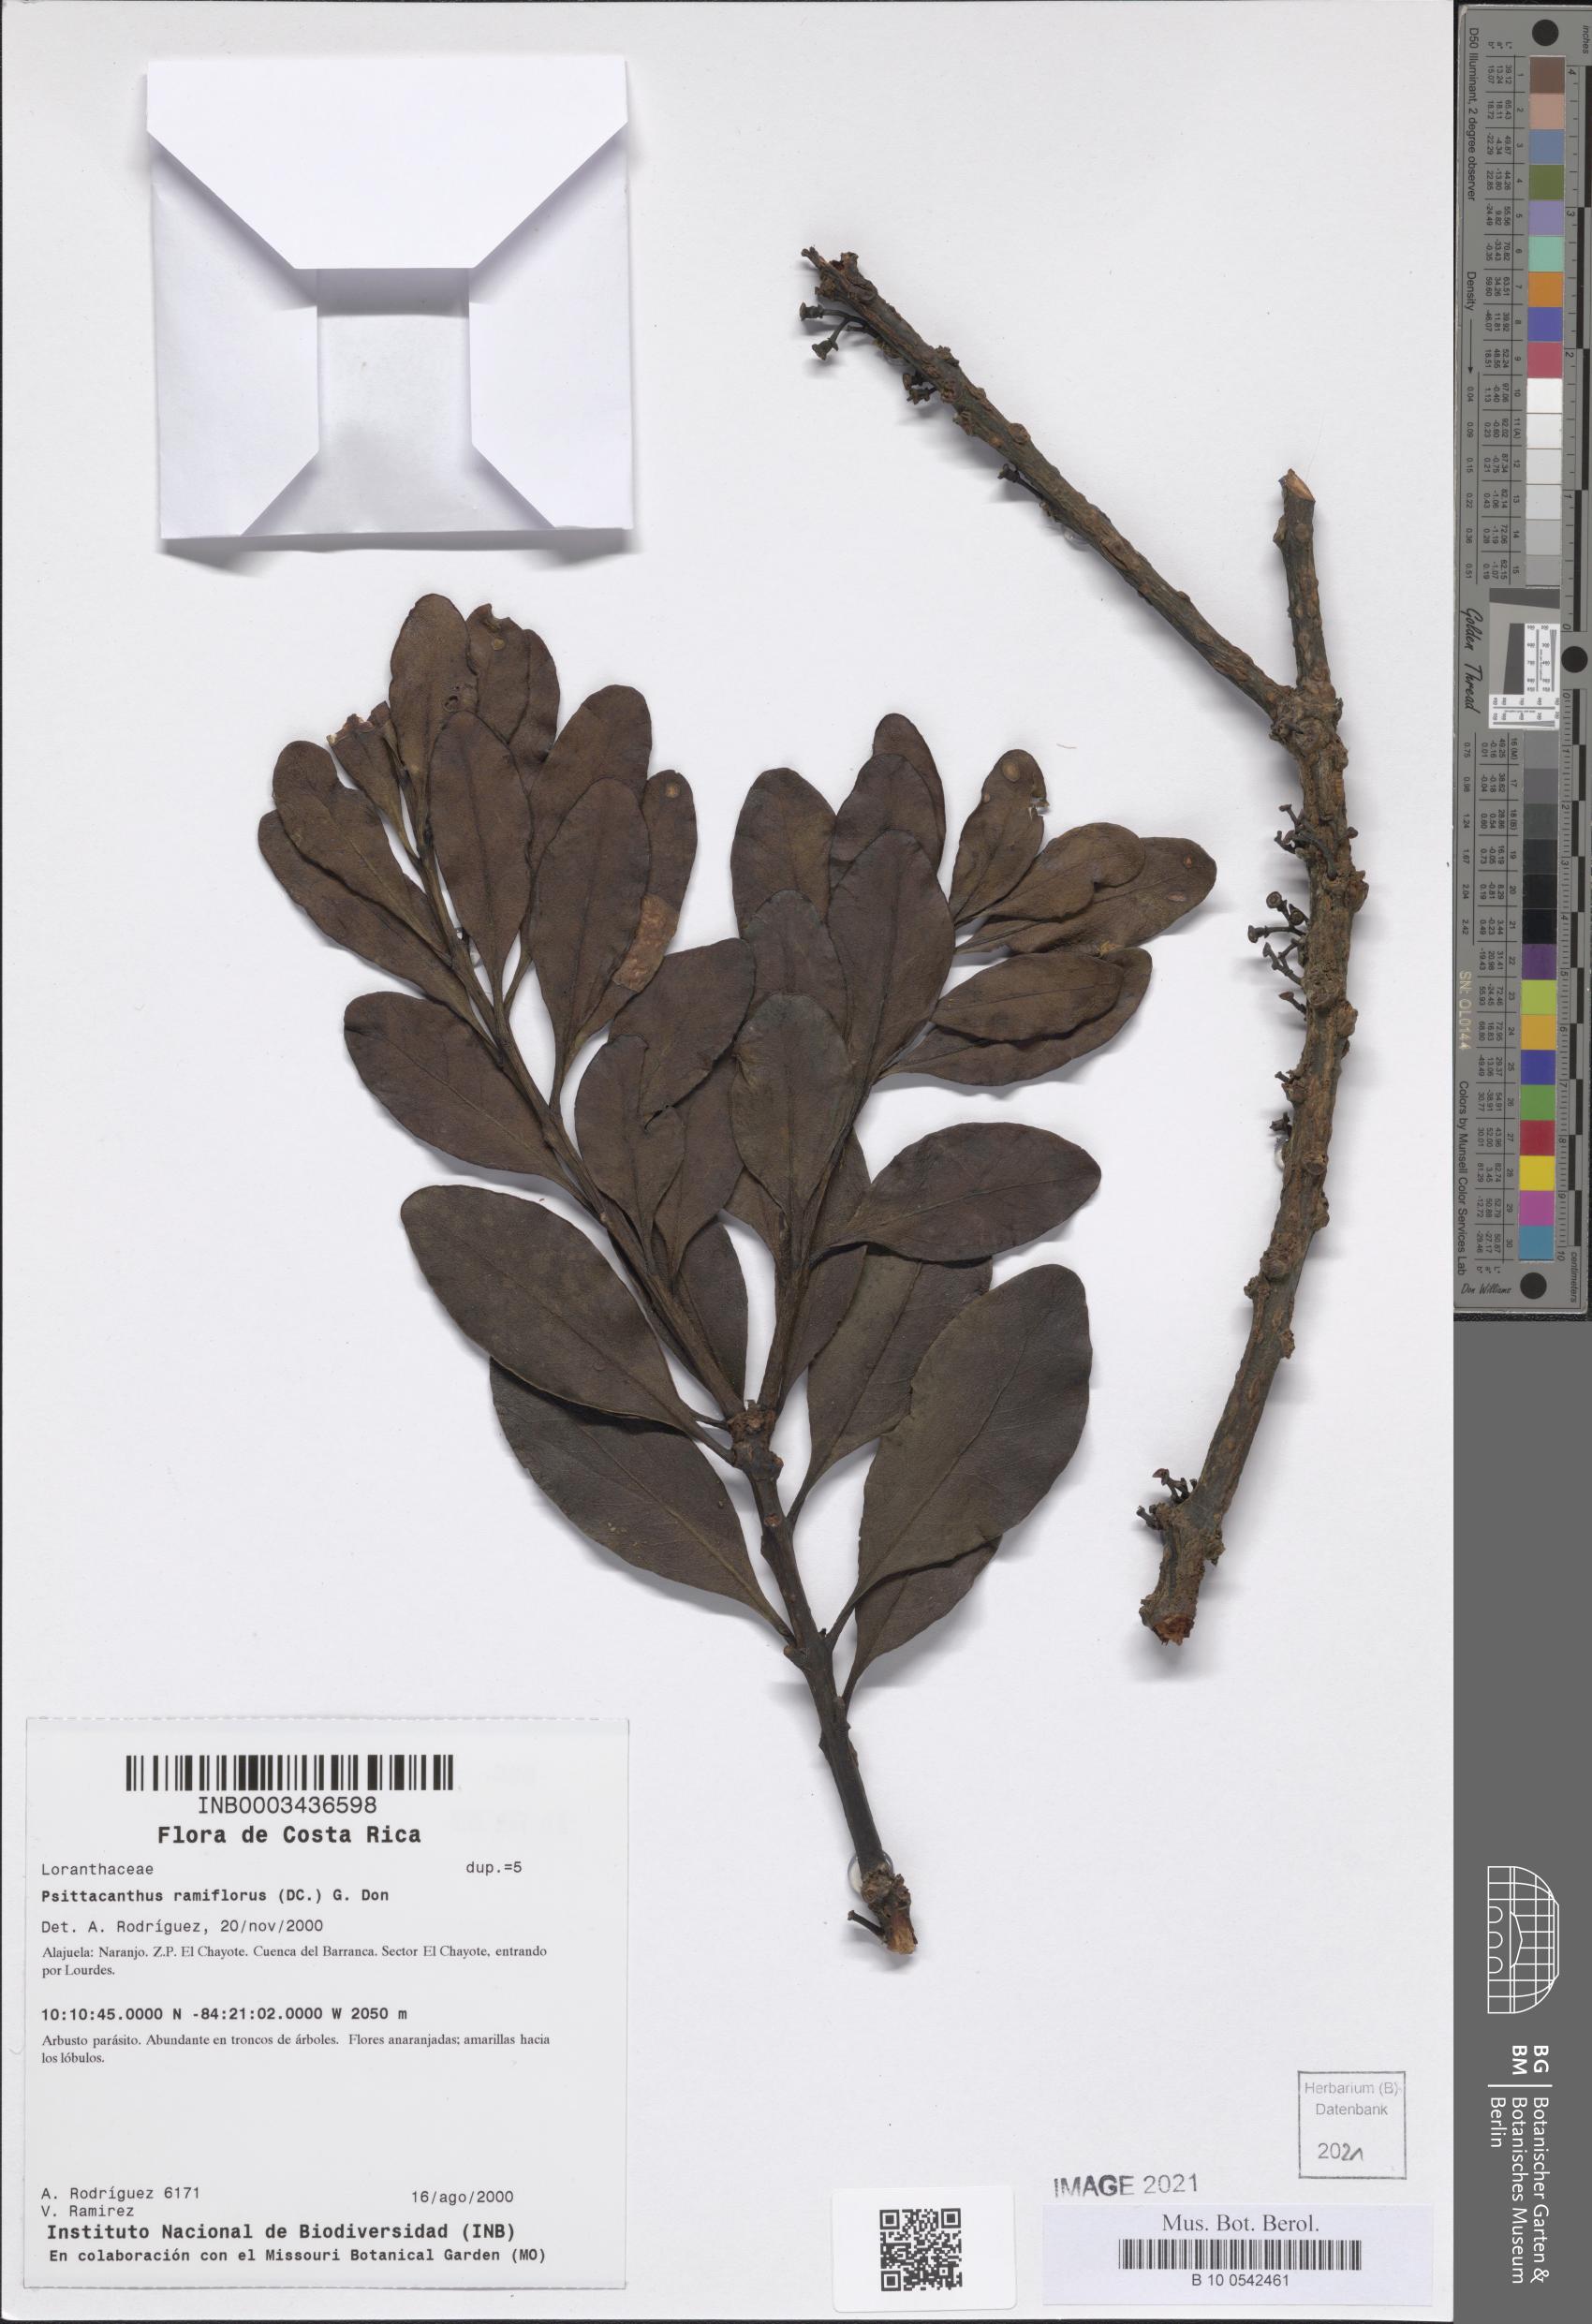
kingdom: Plantae
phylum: Tracheophyta
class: Magnoliopsida
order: Santalales
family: Loranthaceae
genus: Psittacanthus
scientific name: Psittacanthus ramiflorus
